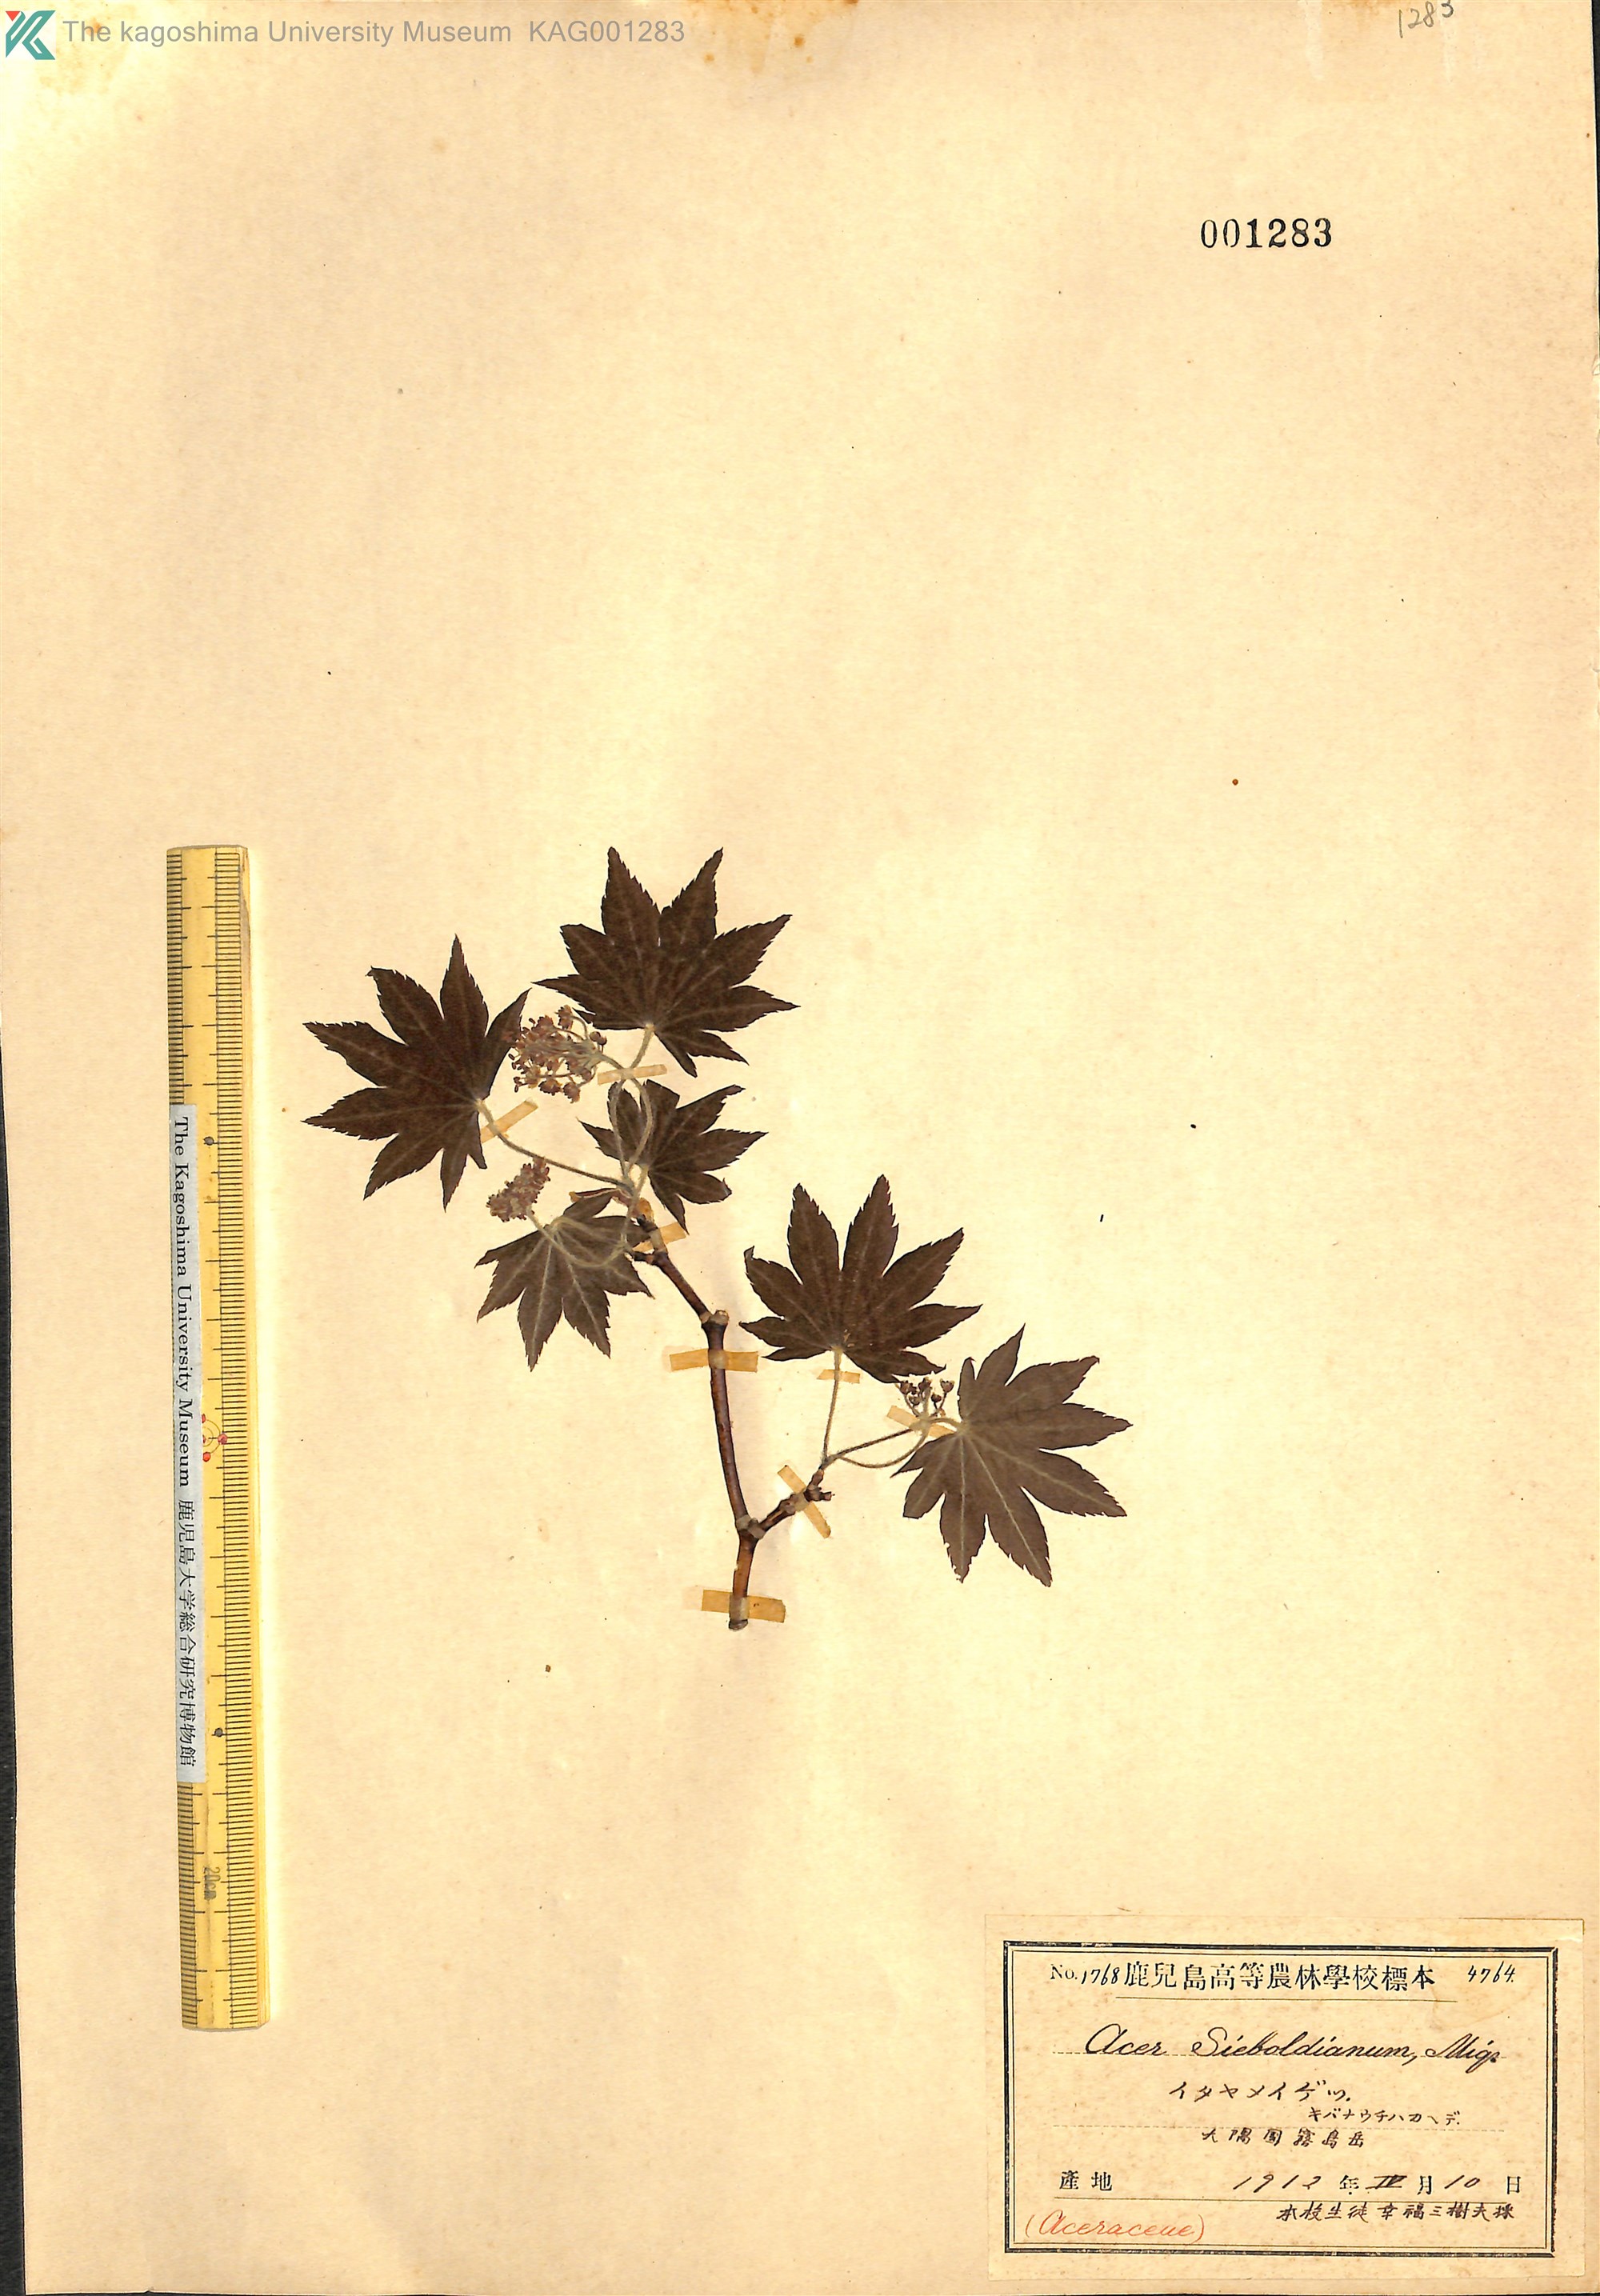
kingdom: Plantae
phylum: Tracheophyta
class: Magnoliopsida
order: Sapindales
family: Sapindaceae
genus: Acer
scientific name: Acer sieboldianum
